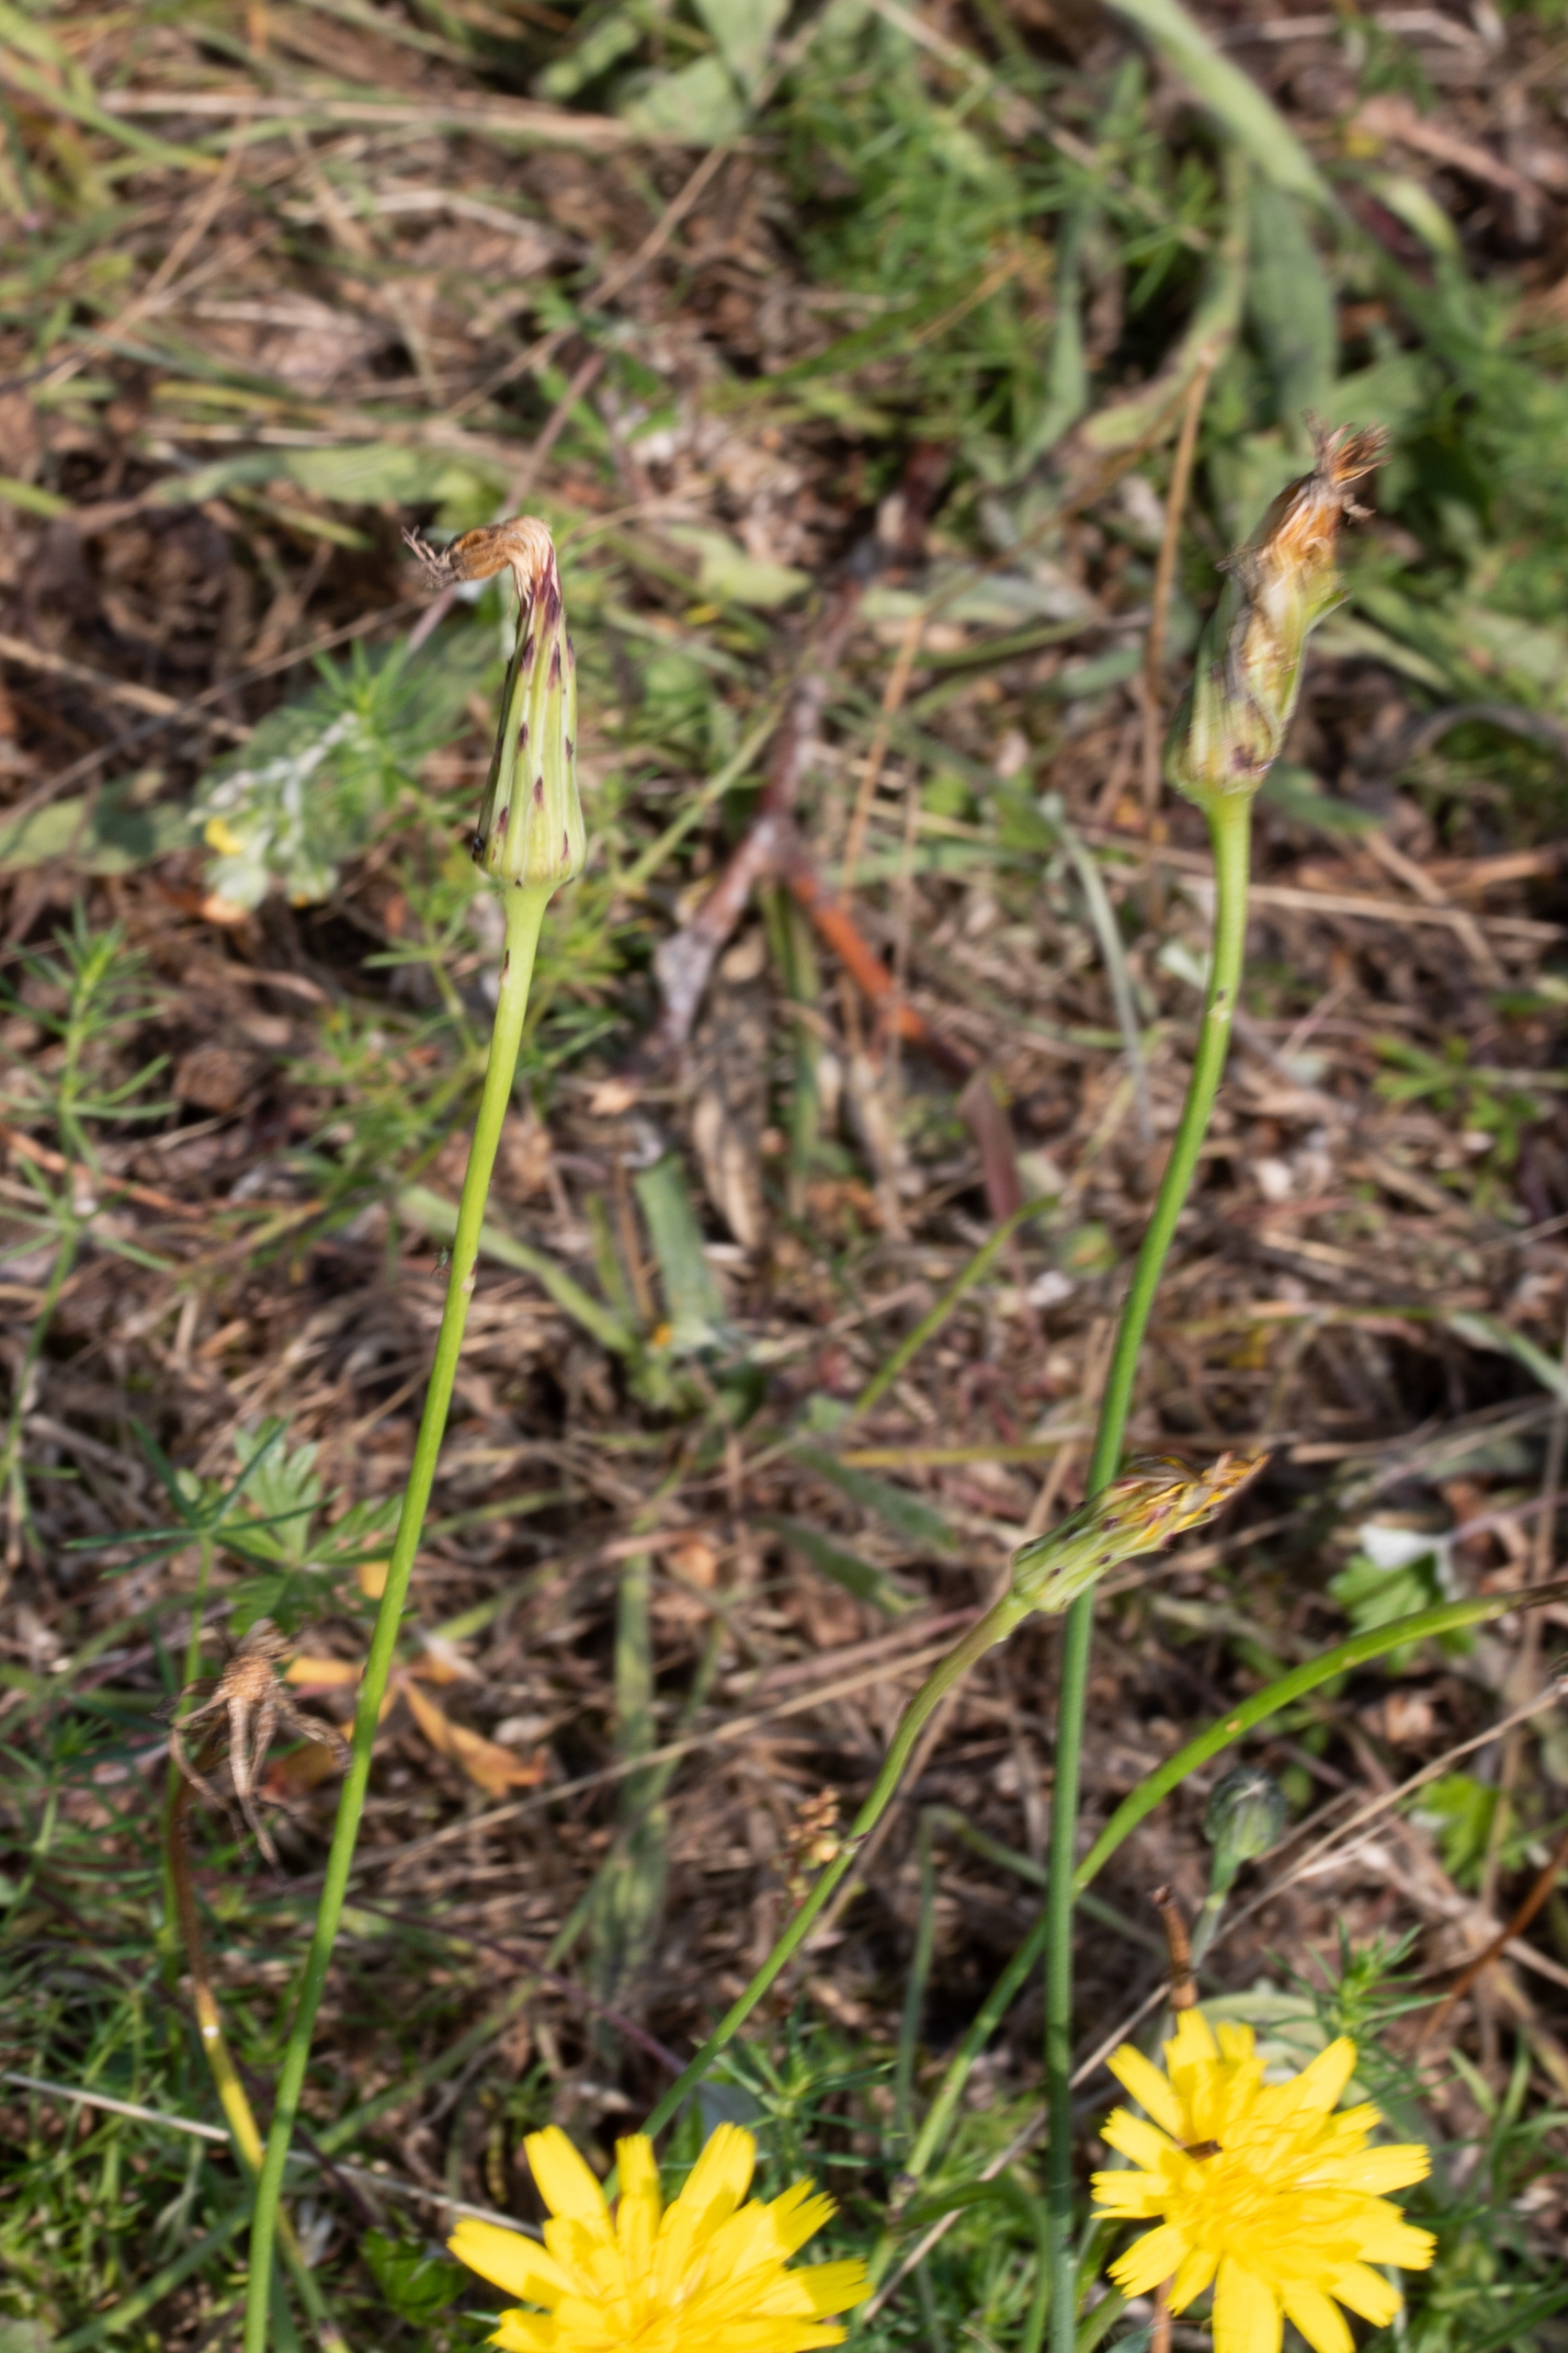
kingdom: Plantae
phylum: Tracheophyta
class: Magnoliopsida
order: Asterales
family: Asteraceae
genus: Hypochaeris
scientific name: Hypochaeris radicata
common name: Almindelig kongepen
